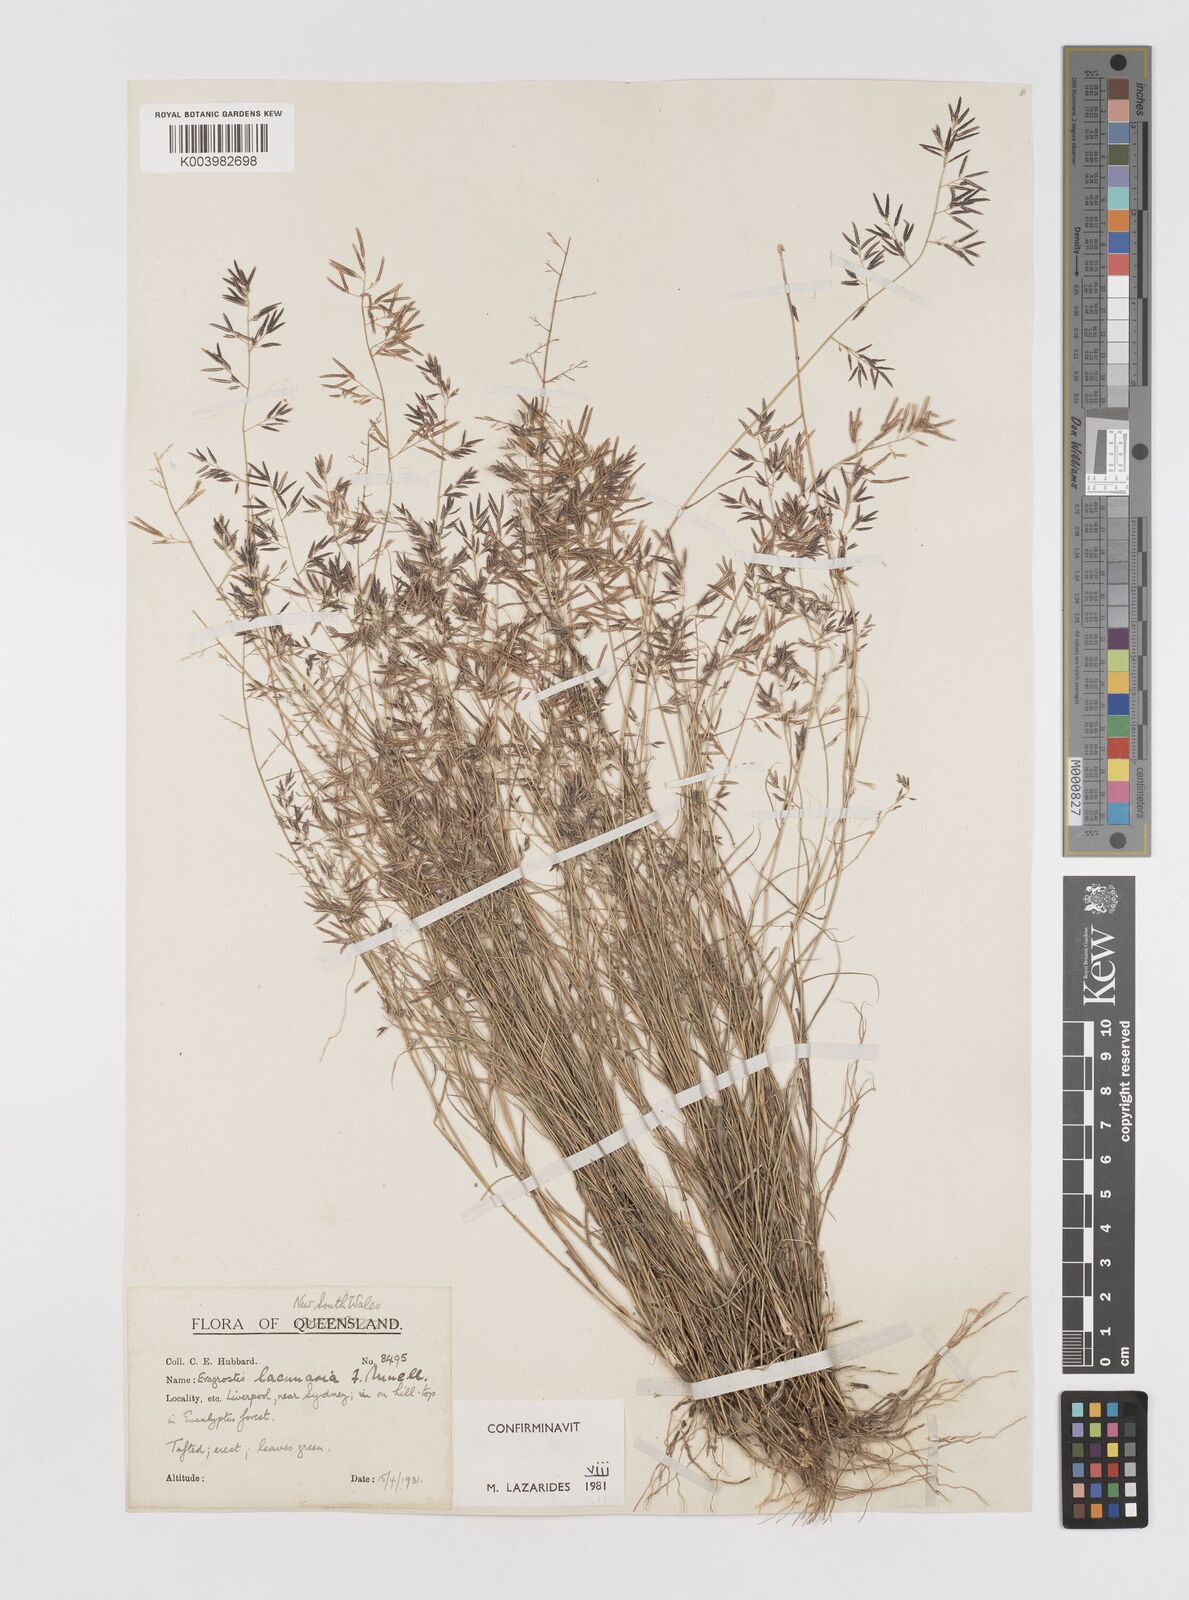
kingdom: Plantae
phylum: Tracheophyta
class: Liliopsida
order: Poales
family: Poaceae
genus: Eragrostis
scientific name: Eragrostis lacunaria
